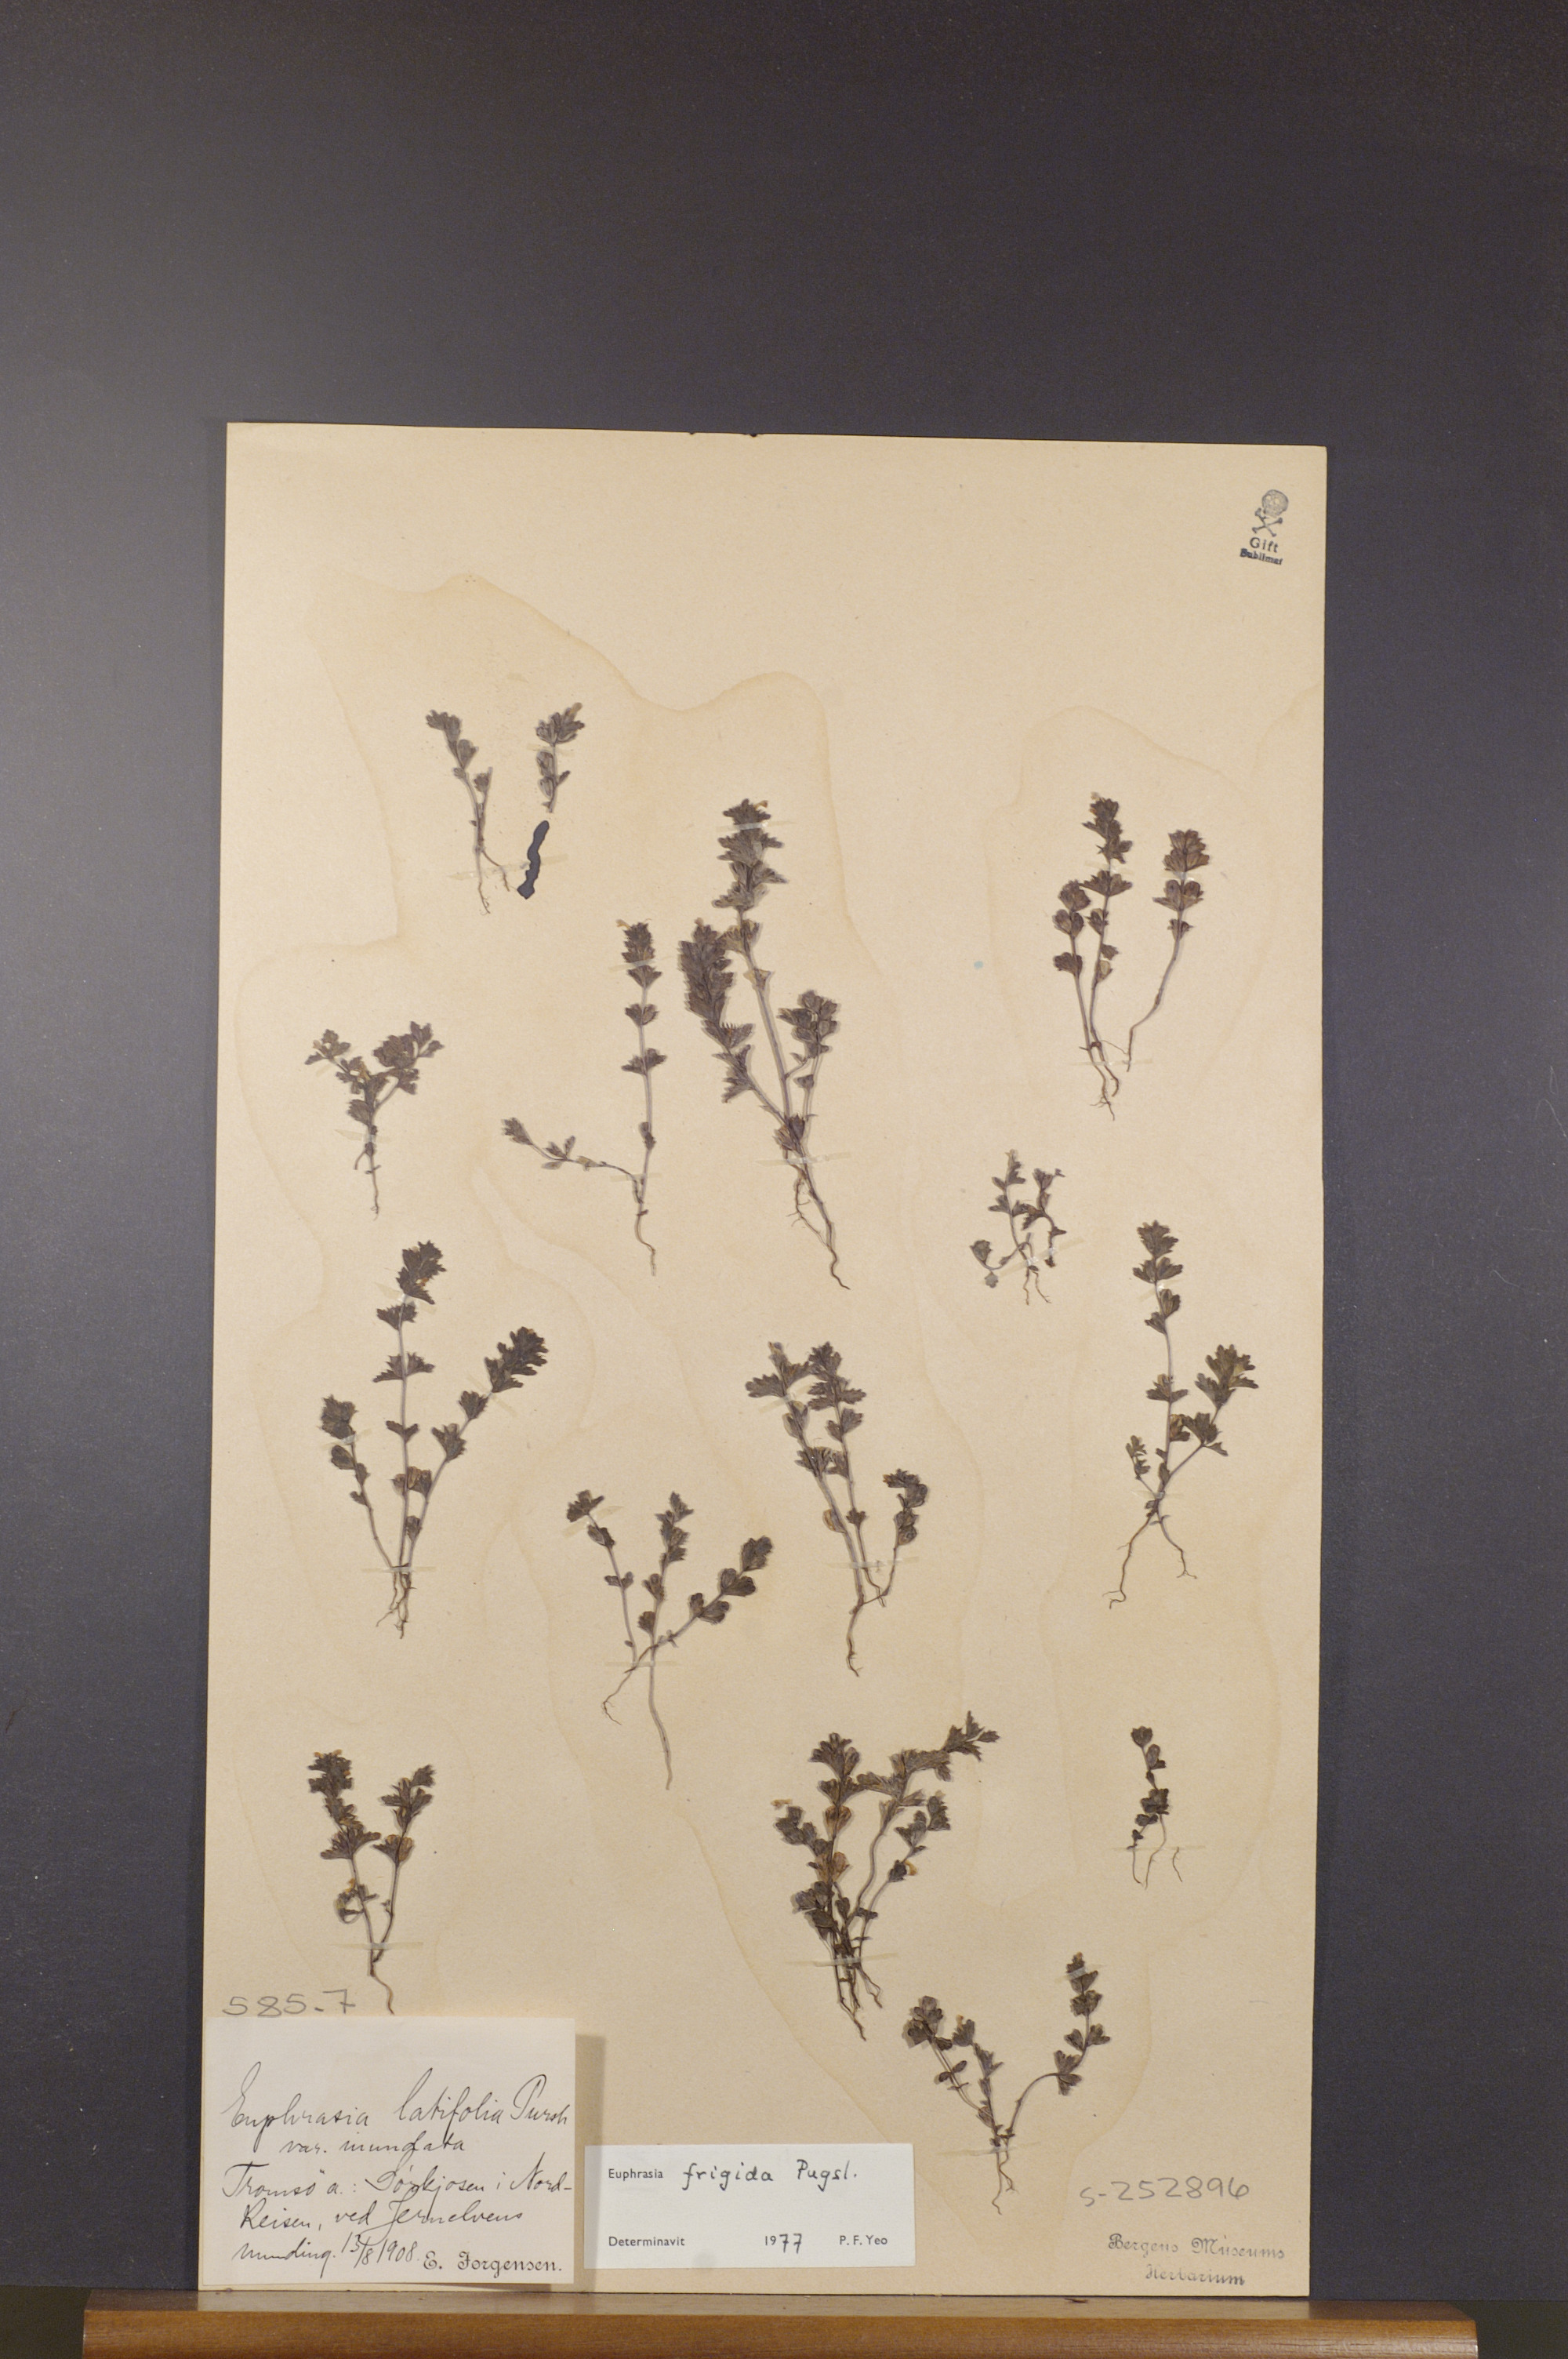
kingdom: Plantae
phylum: Tracheophyta
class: Magnoliopsida
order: Lamiales
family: Orobanchaceae
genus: Euphrasia
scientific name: Euphrasia bottnica
